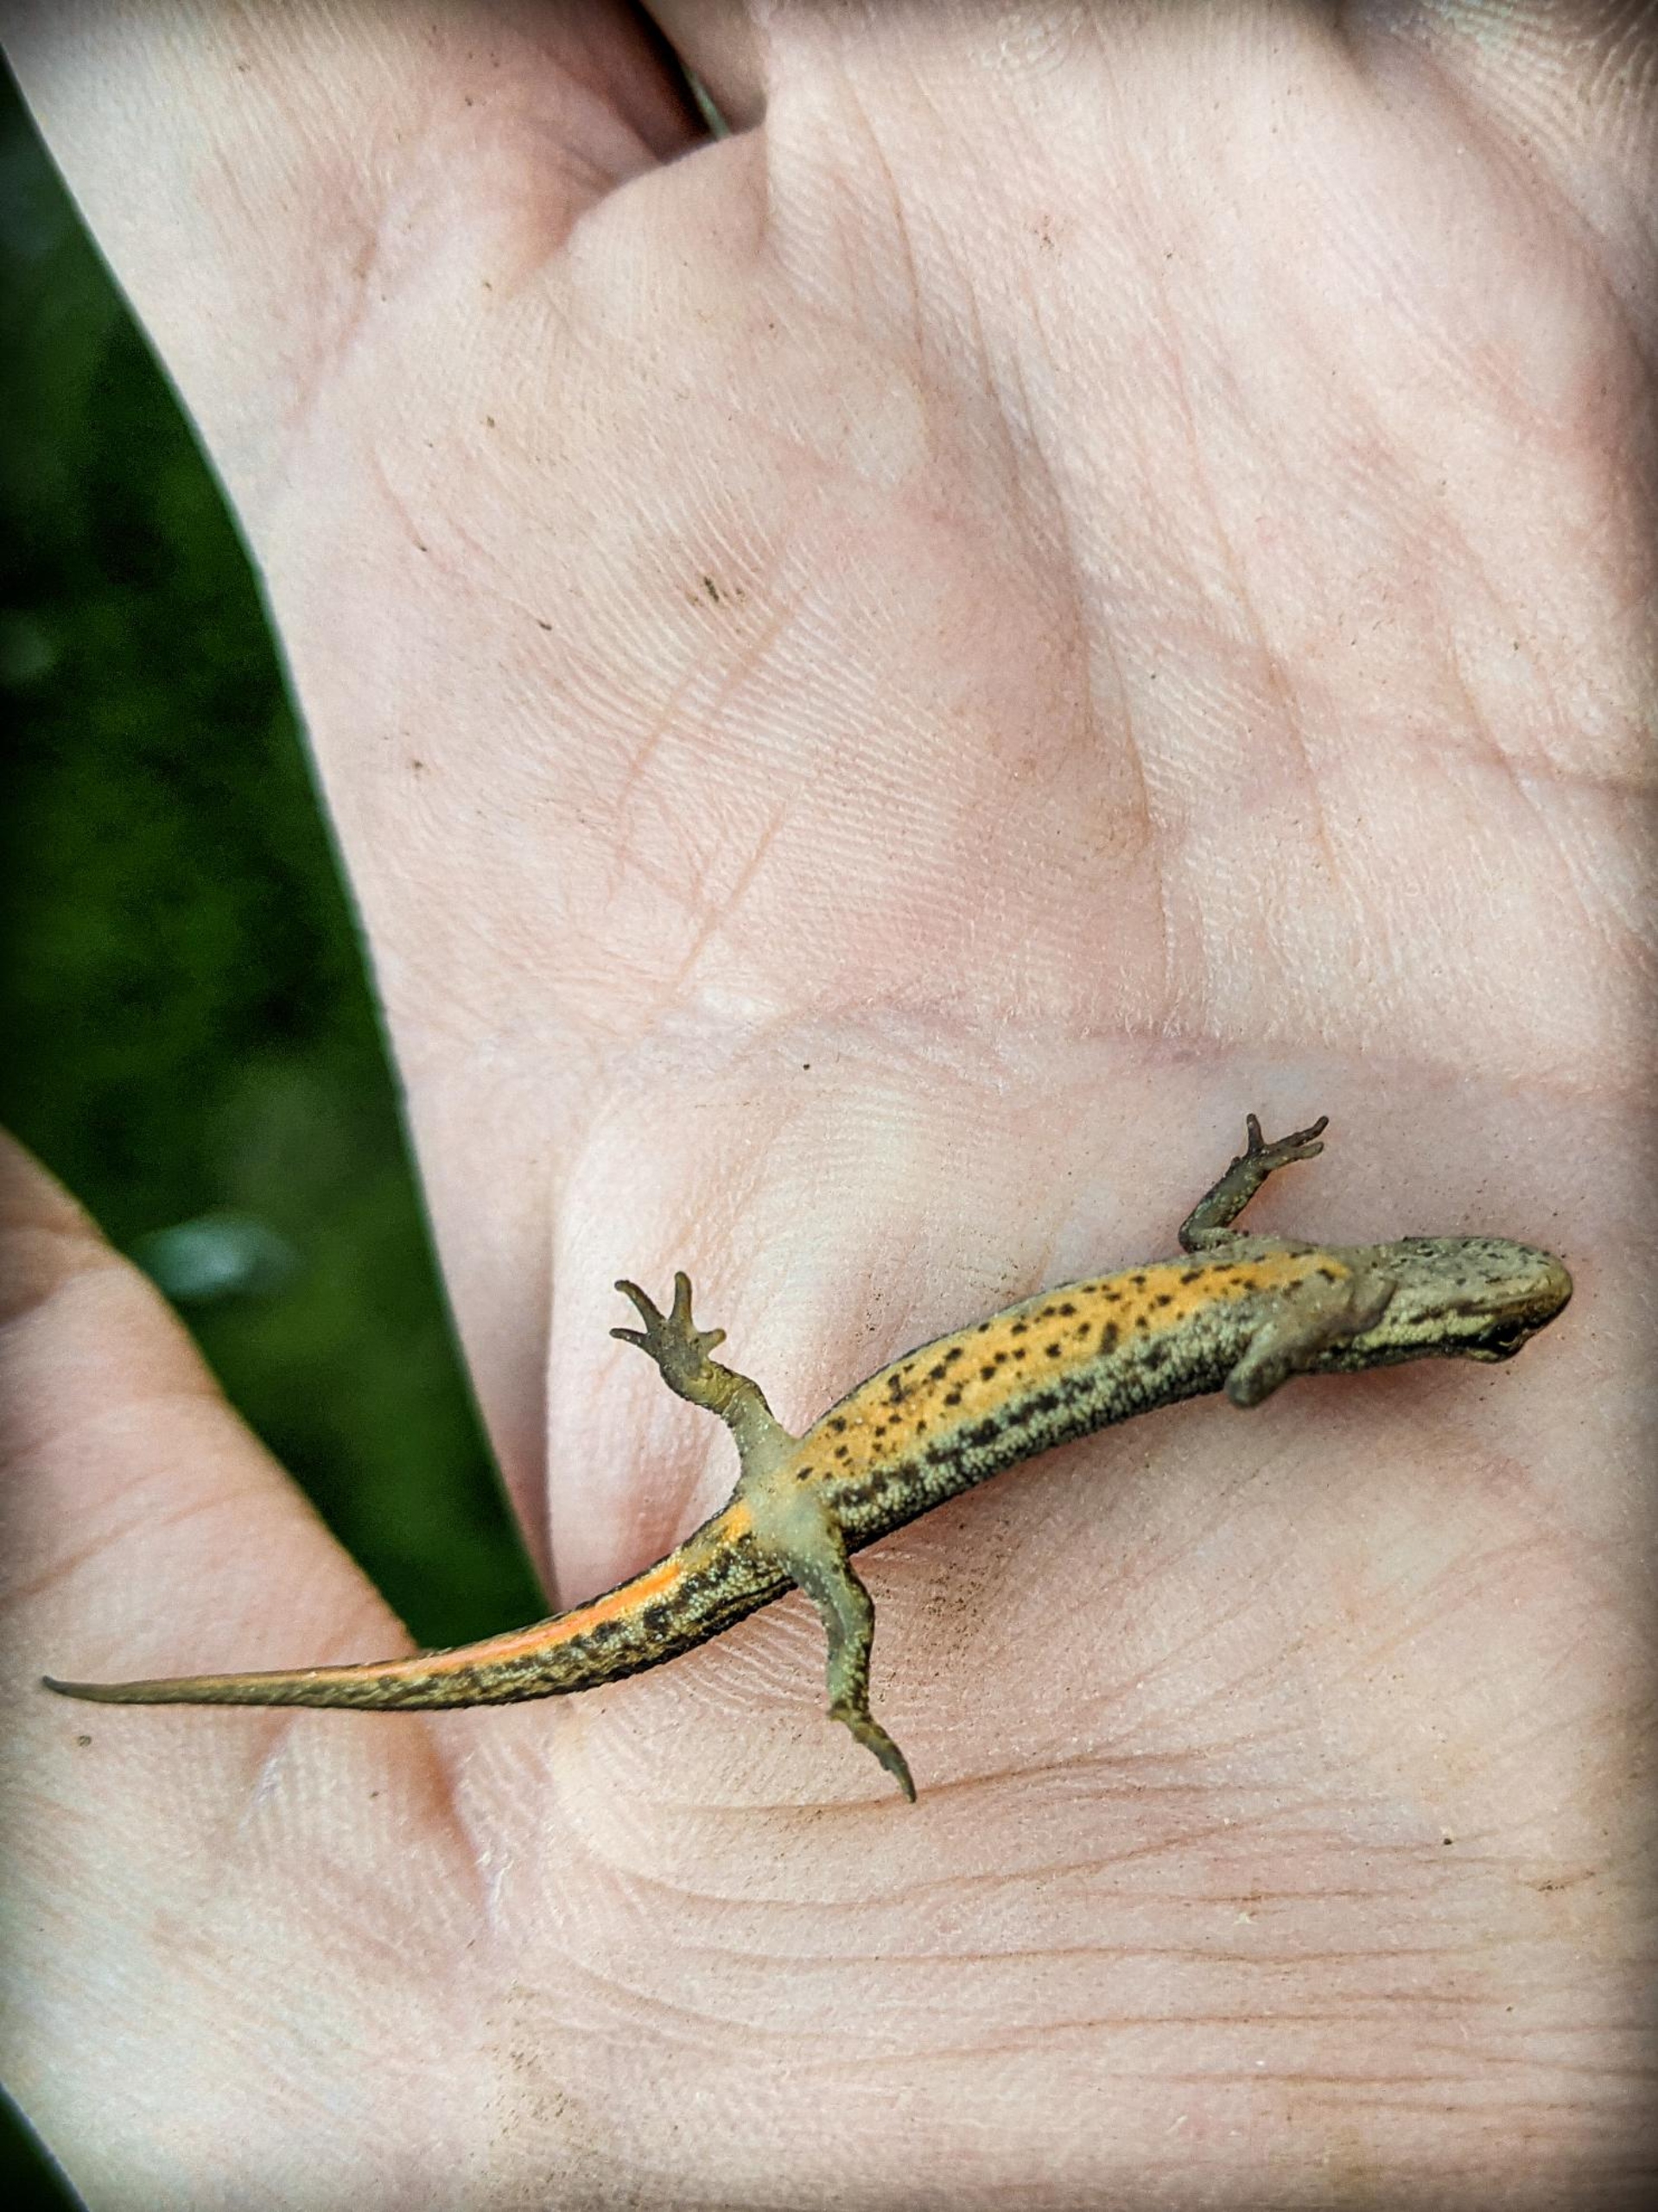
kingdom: Animalia
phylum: Chordata
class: Amphibia
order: Caudata
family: Salamandridae
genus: Lissotriton
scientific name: Lissotriton vulgaris
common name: Lille vandsalamander
